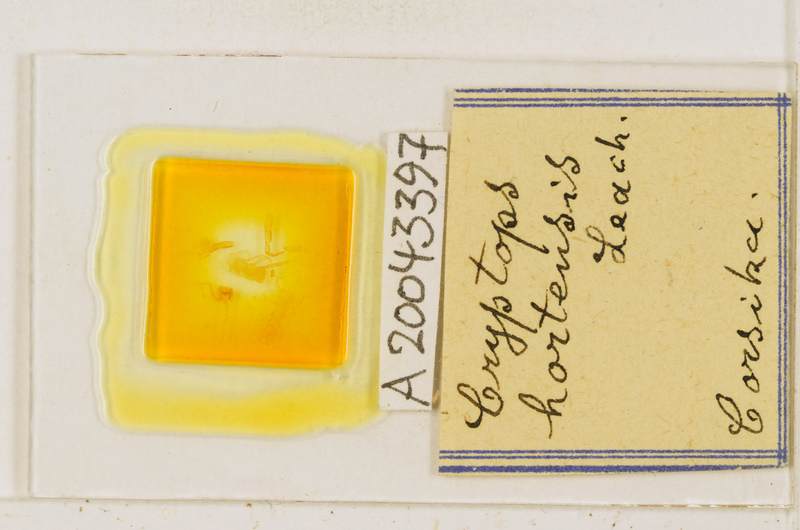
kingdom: Animalia
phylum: Arthropoda
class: Chilopoda
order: Scolopendromorpha
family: Cryptopidae
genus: Cryptops
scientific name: Cryptops hortensis
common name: Centipede
